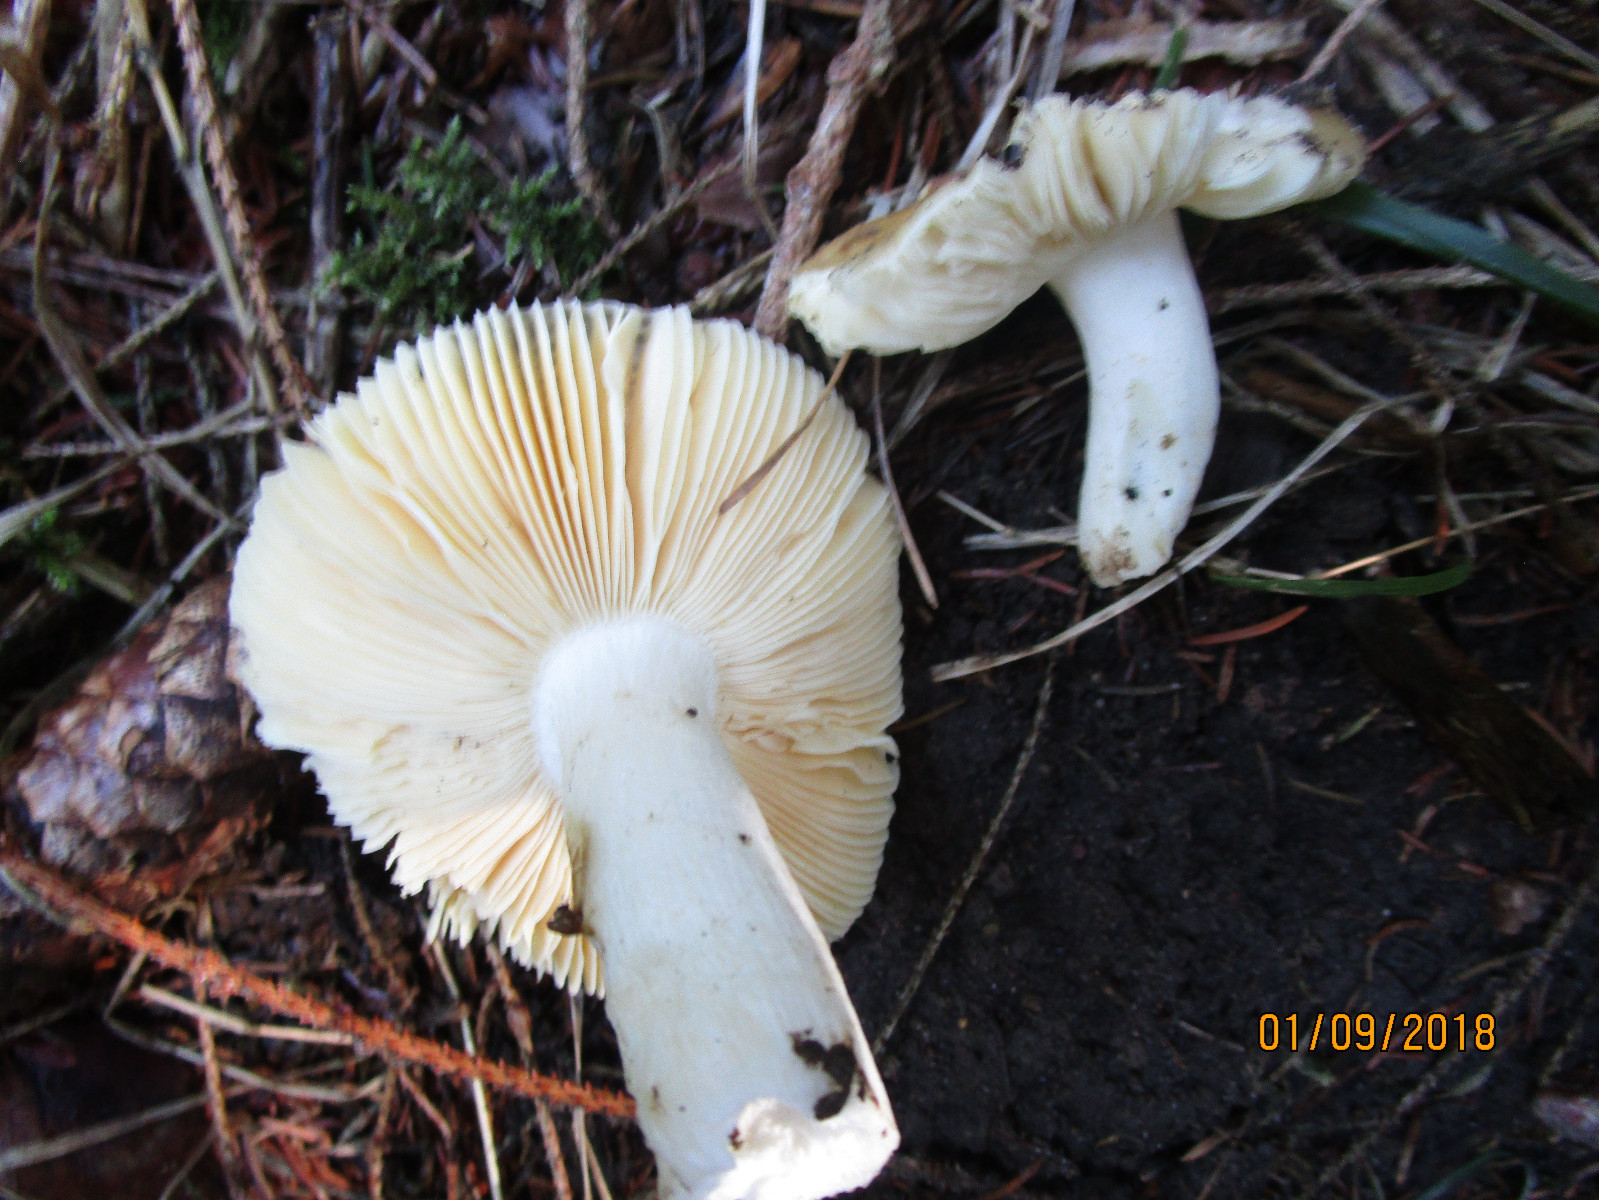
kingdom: Fungi
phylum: Basidiomycota
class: Agaricomycetes
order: Russulales
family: Russulaceae
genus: Russula
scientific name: Russula nauseosa
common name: spinkel skørhat
